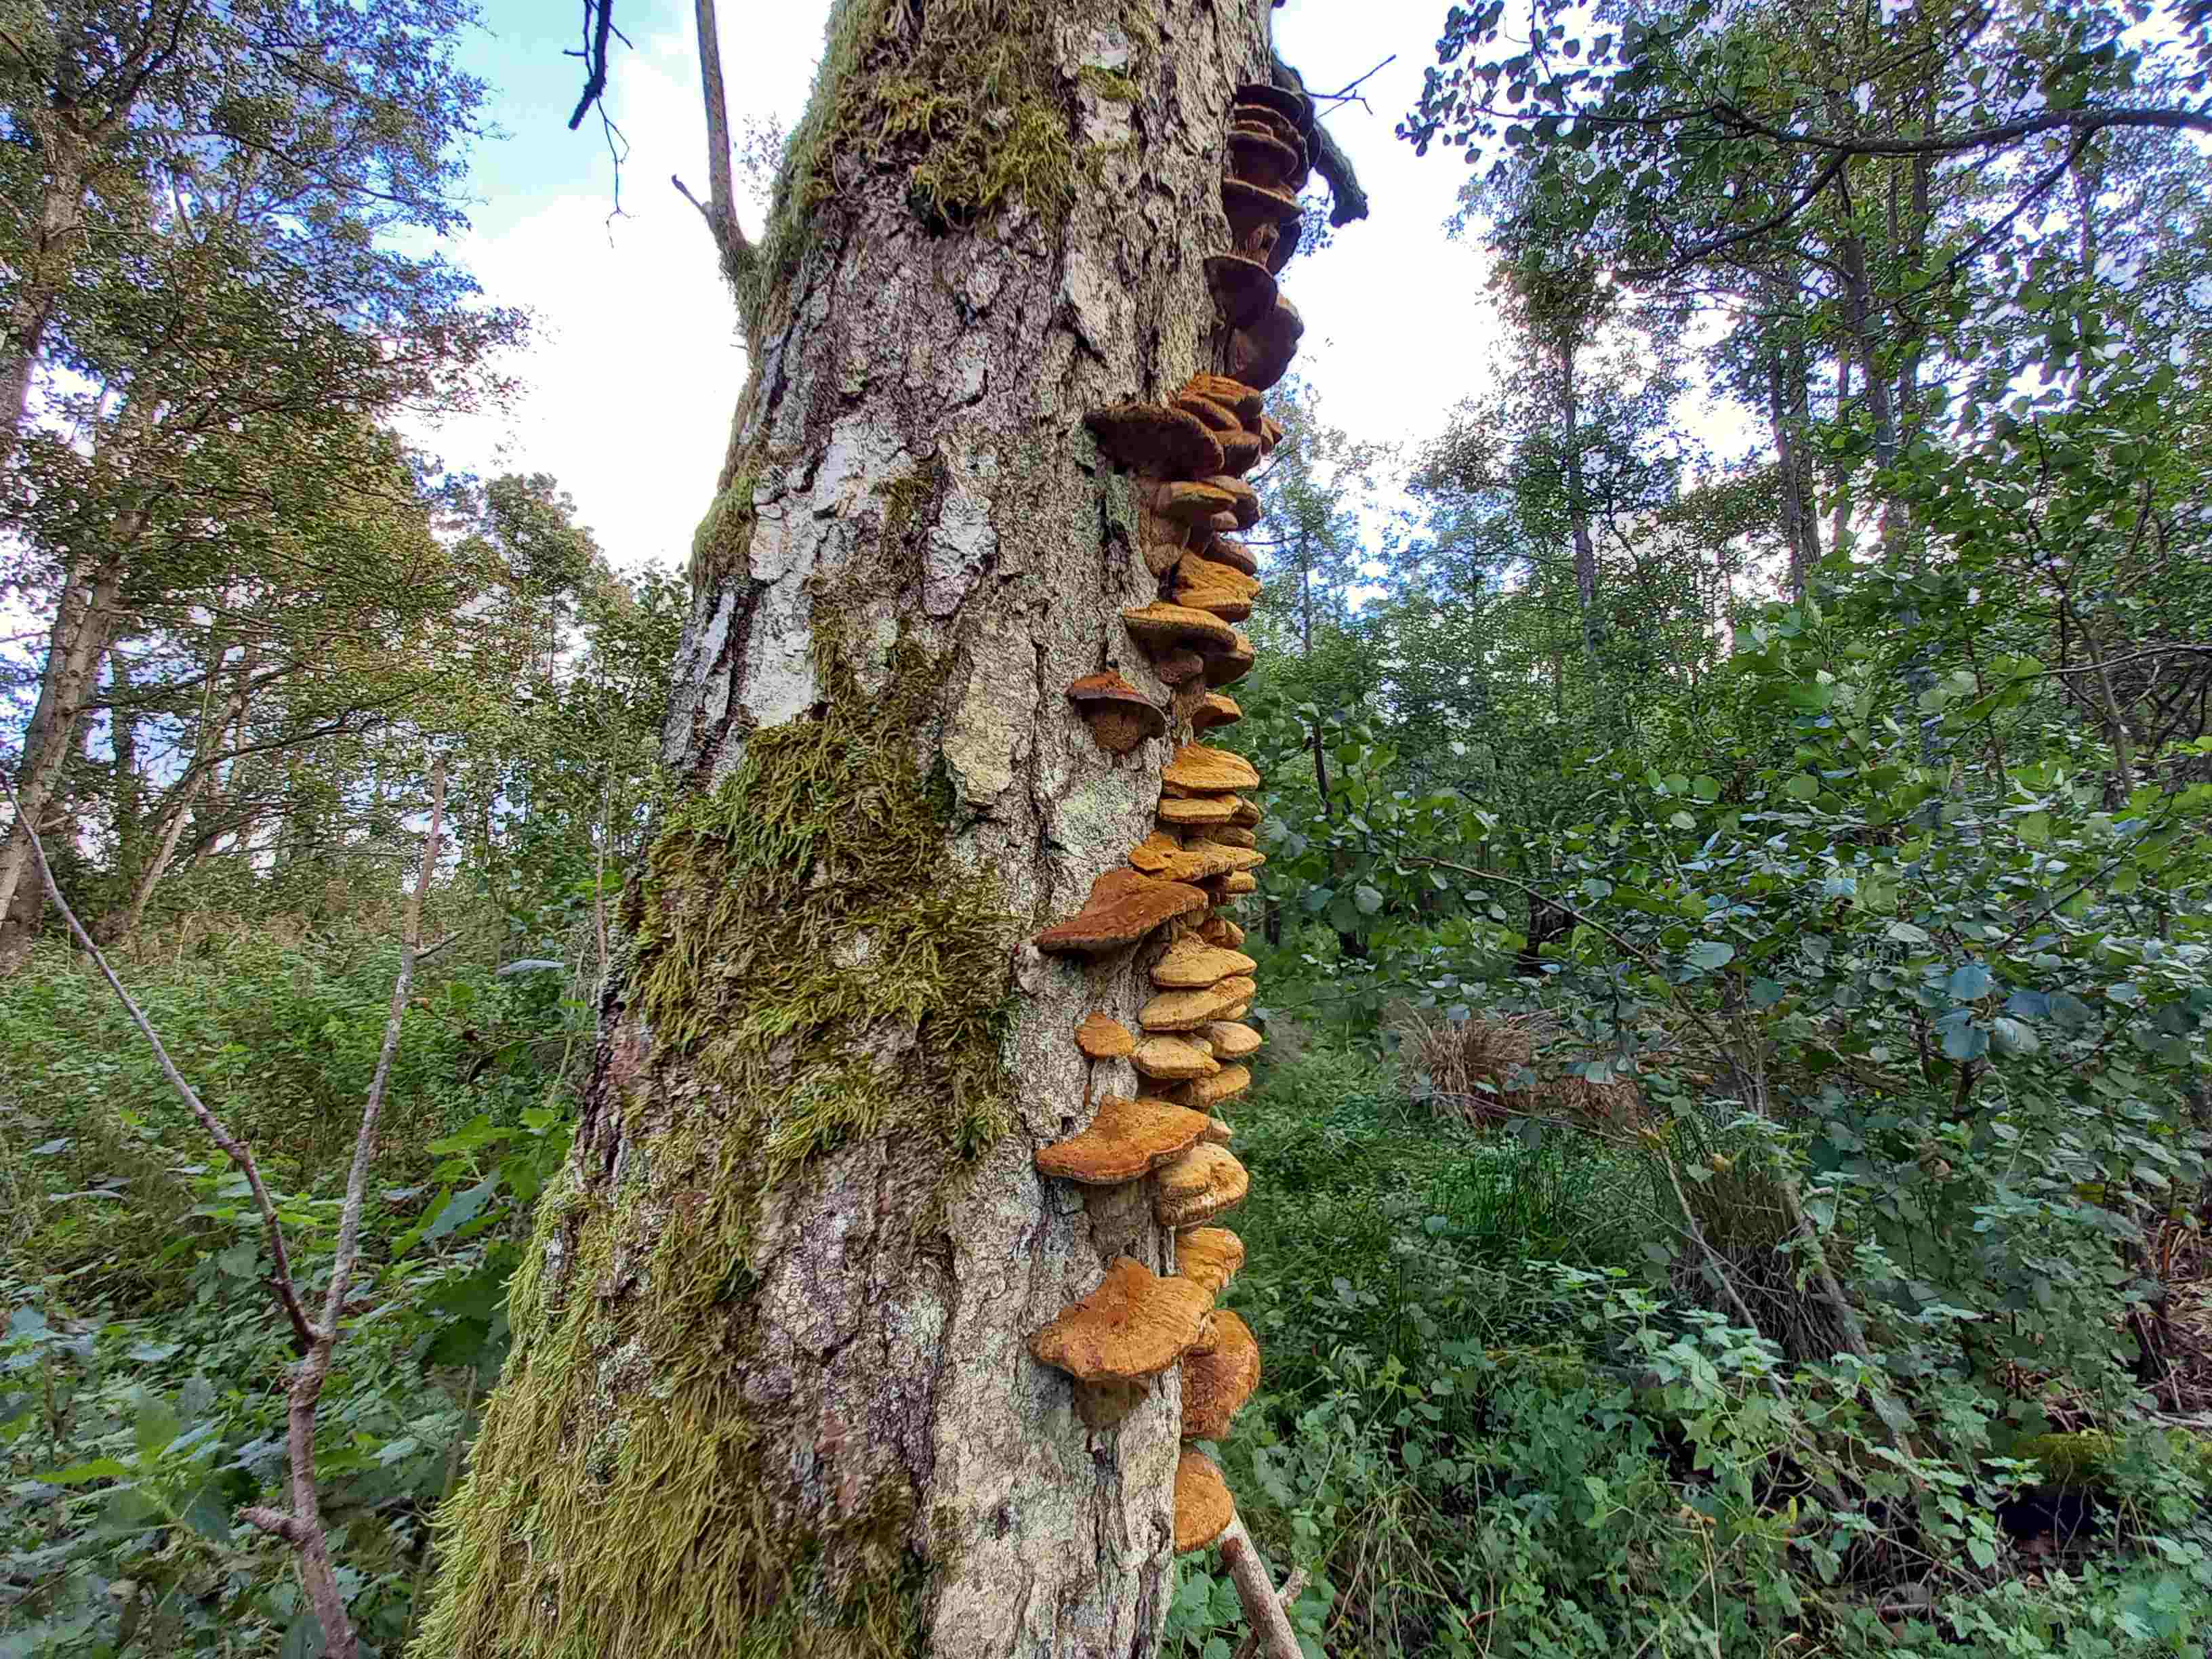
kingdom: Fungi
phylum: Basidiomycota
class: Agaricomycetes
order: Hymenochaetales
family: Hymenochaetaceae
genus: Xanthoporia
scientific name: Xanthoporia radiata
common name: elle-spejlporesvamp
